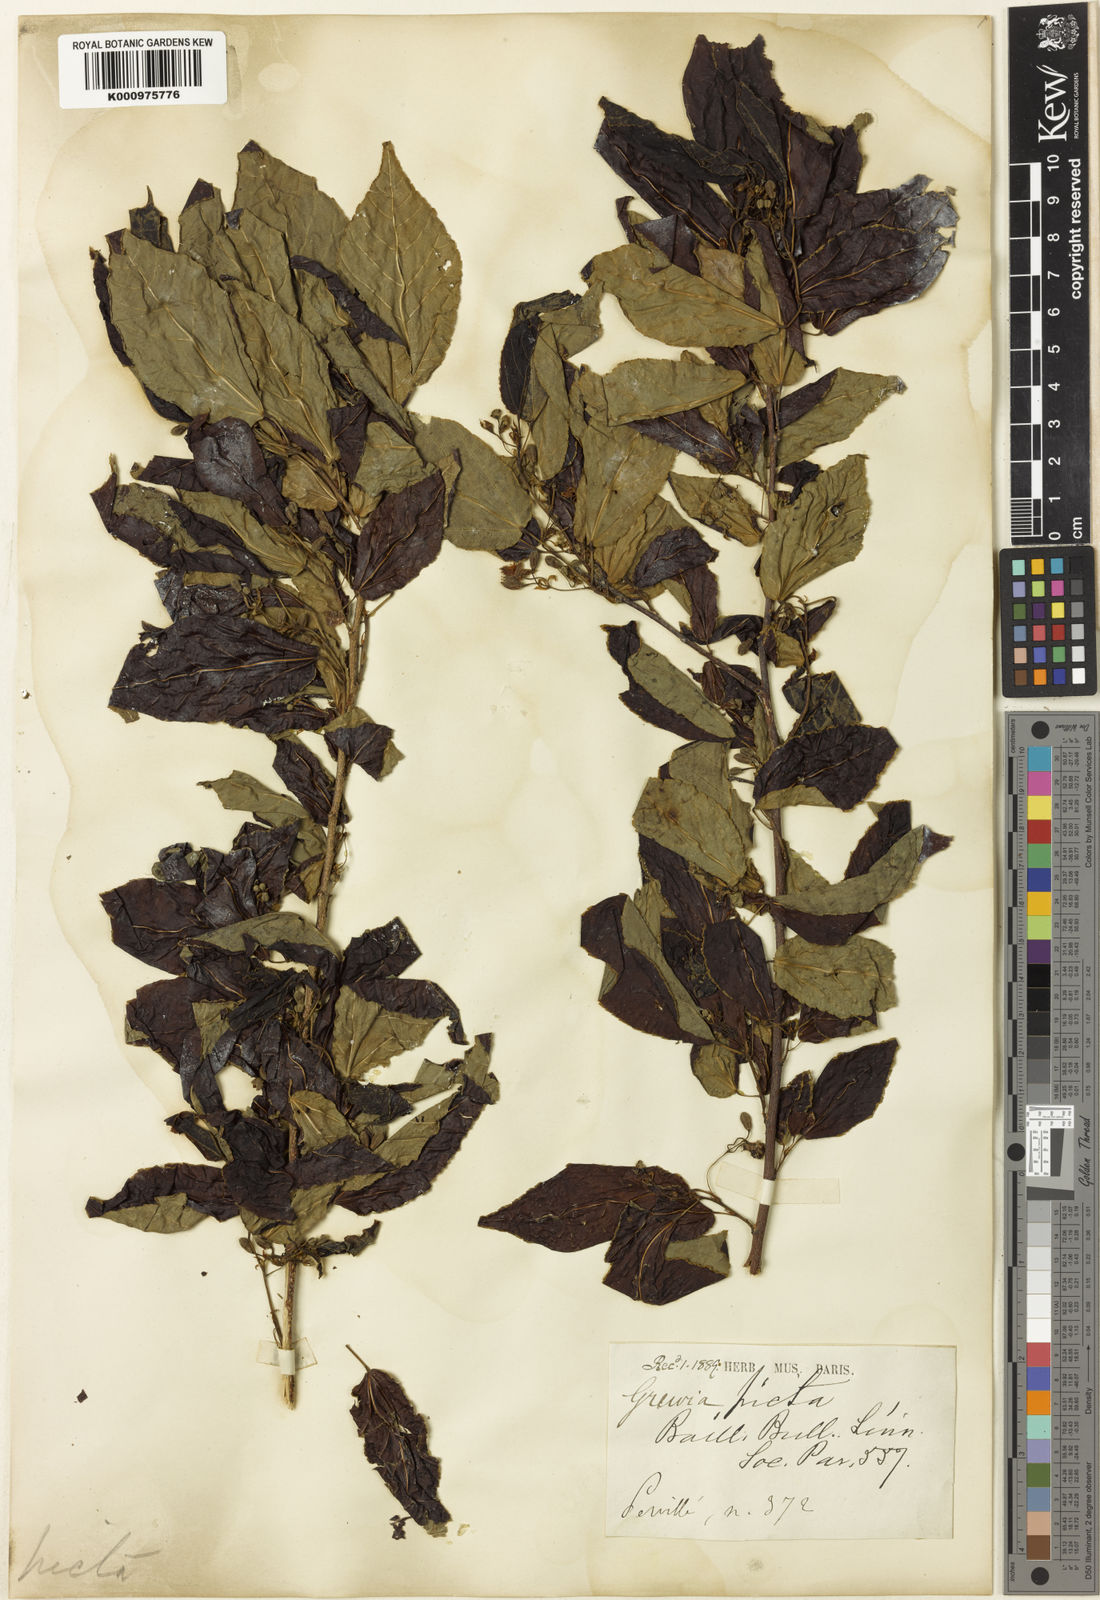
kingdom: Plantae
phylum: Tracheophyta
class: Magnoliopsida
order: Malvales
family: Malvaceae
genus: Grewia
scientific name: Grewia picta
